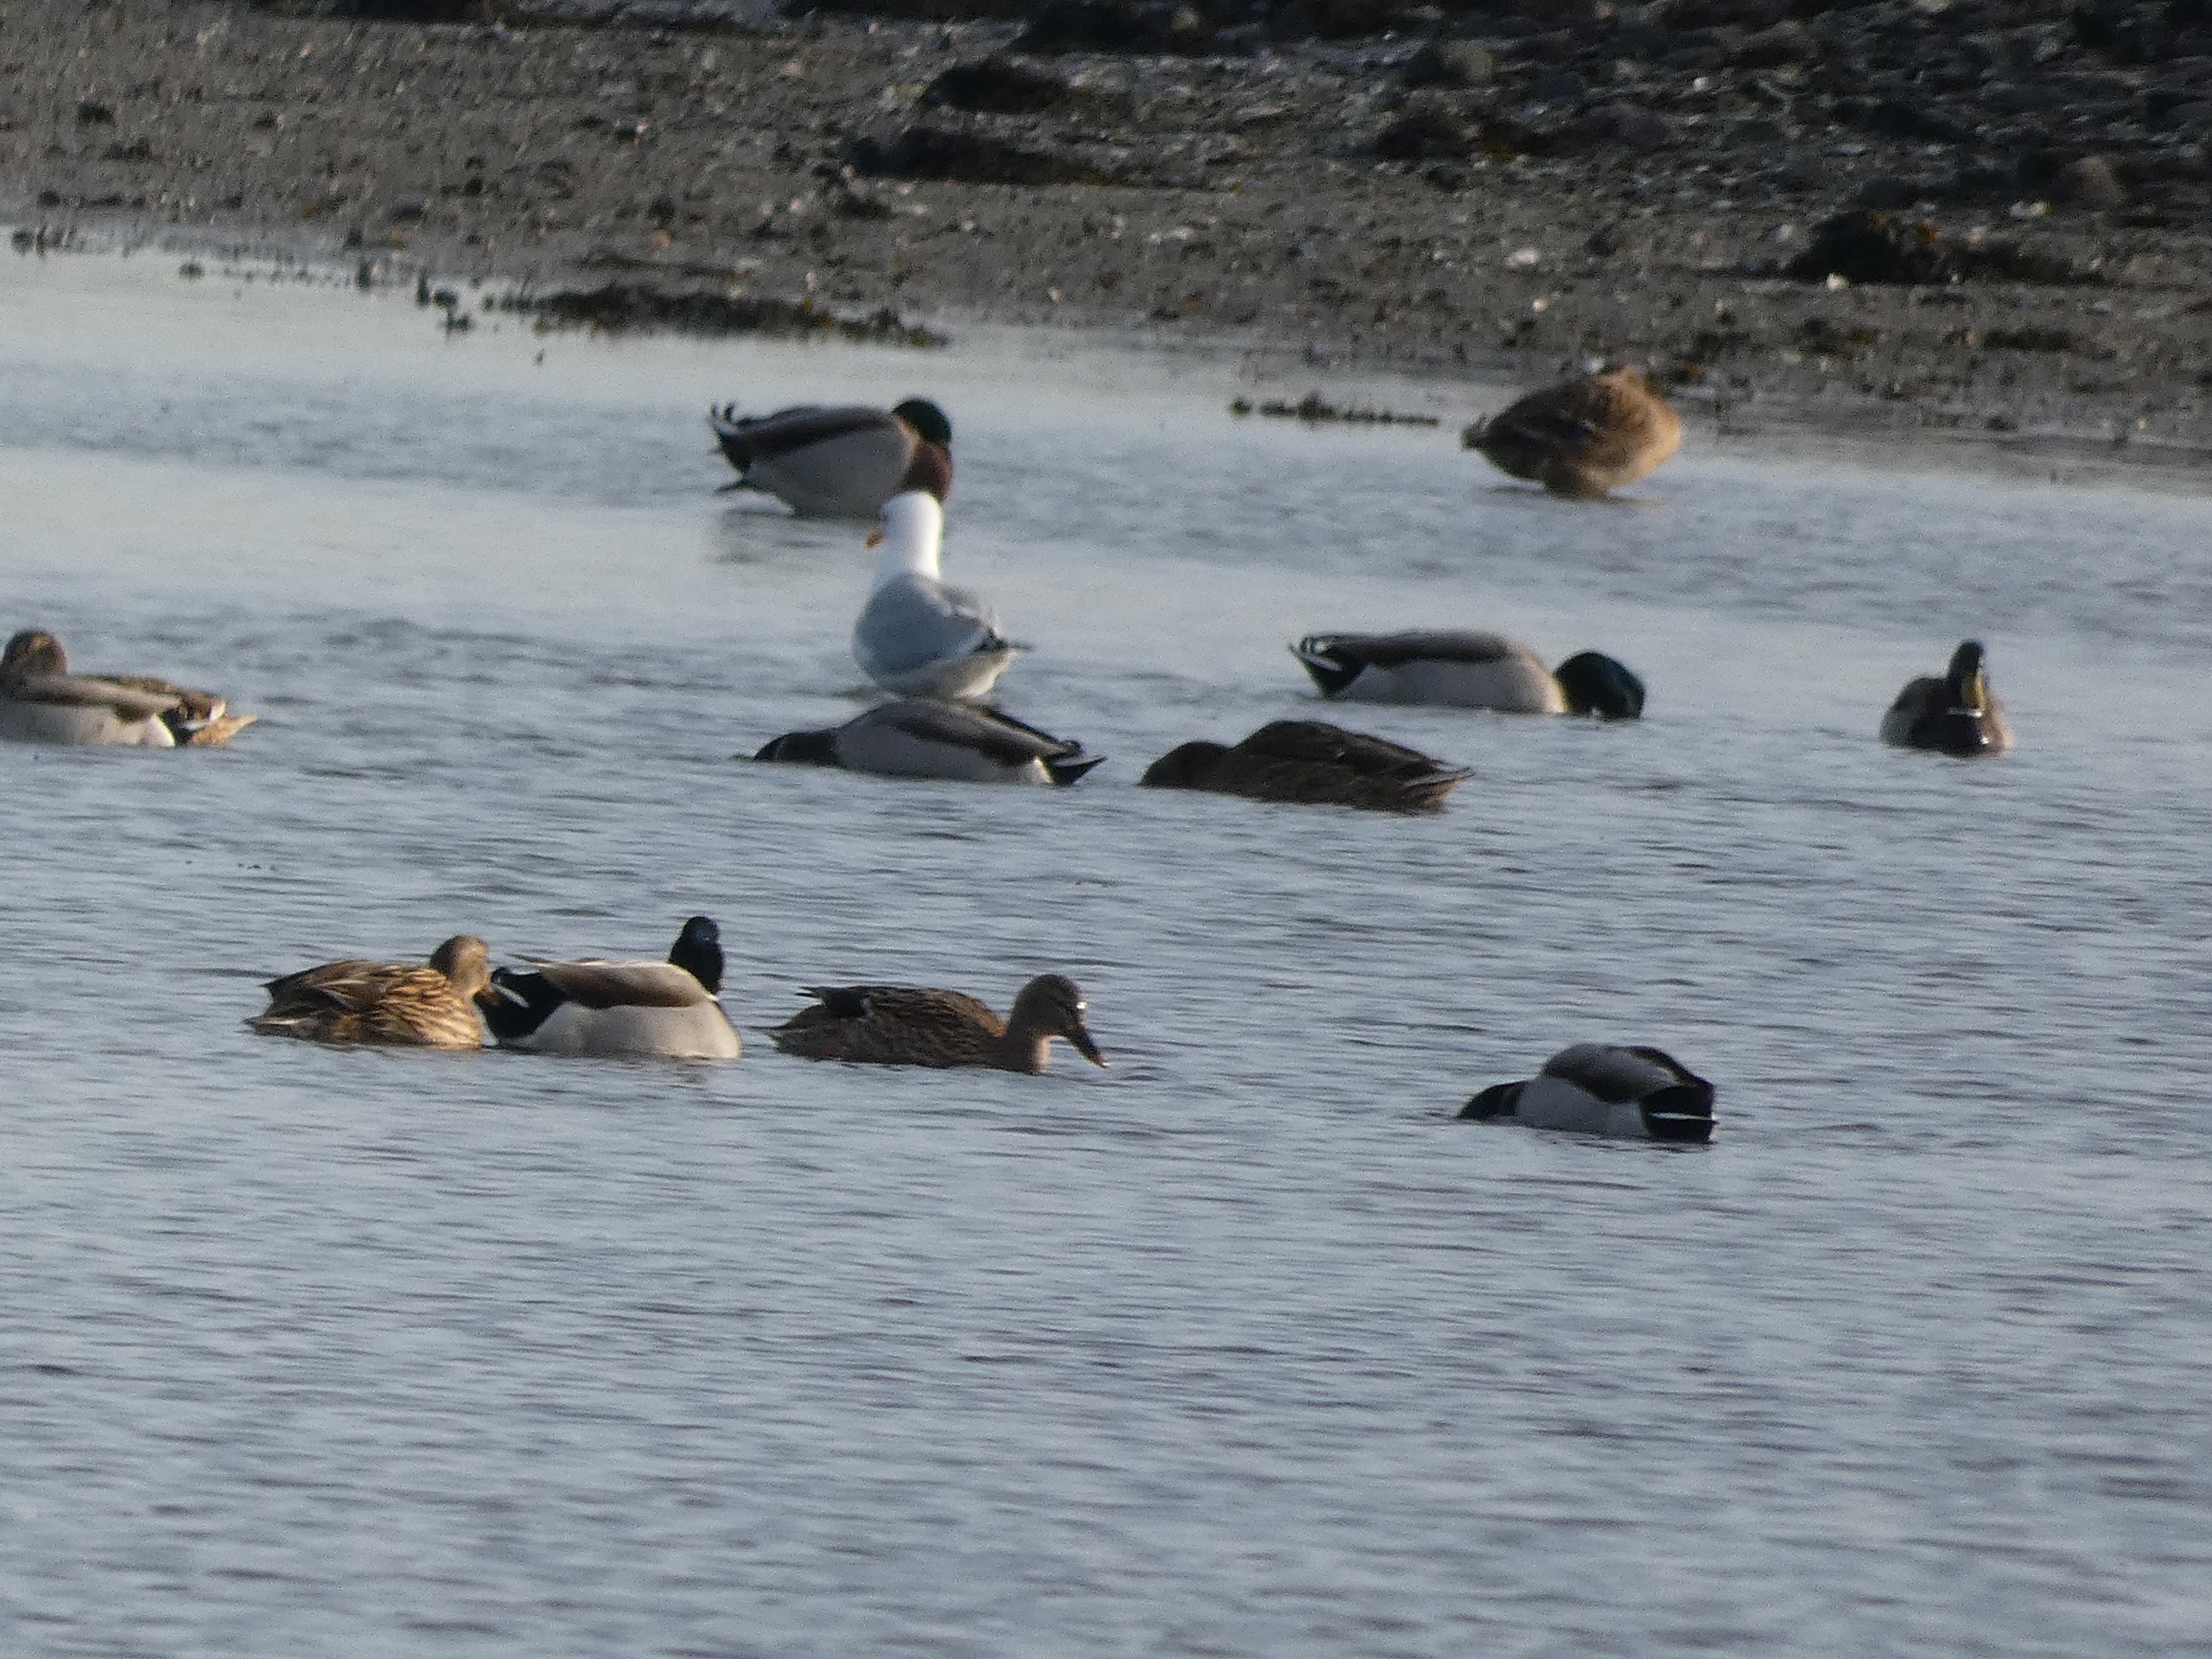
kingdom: Animalia
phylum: Chordata
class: Aves
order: Anseriformes
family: Anatidae
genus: Anas
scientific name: Anas platyrhynchos
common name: Gråand
